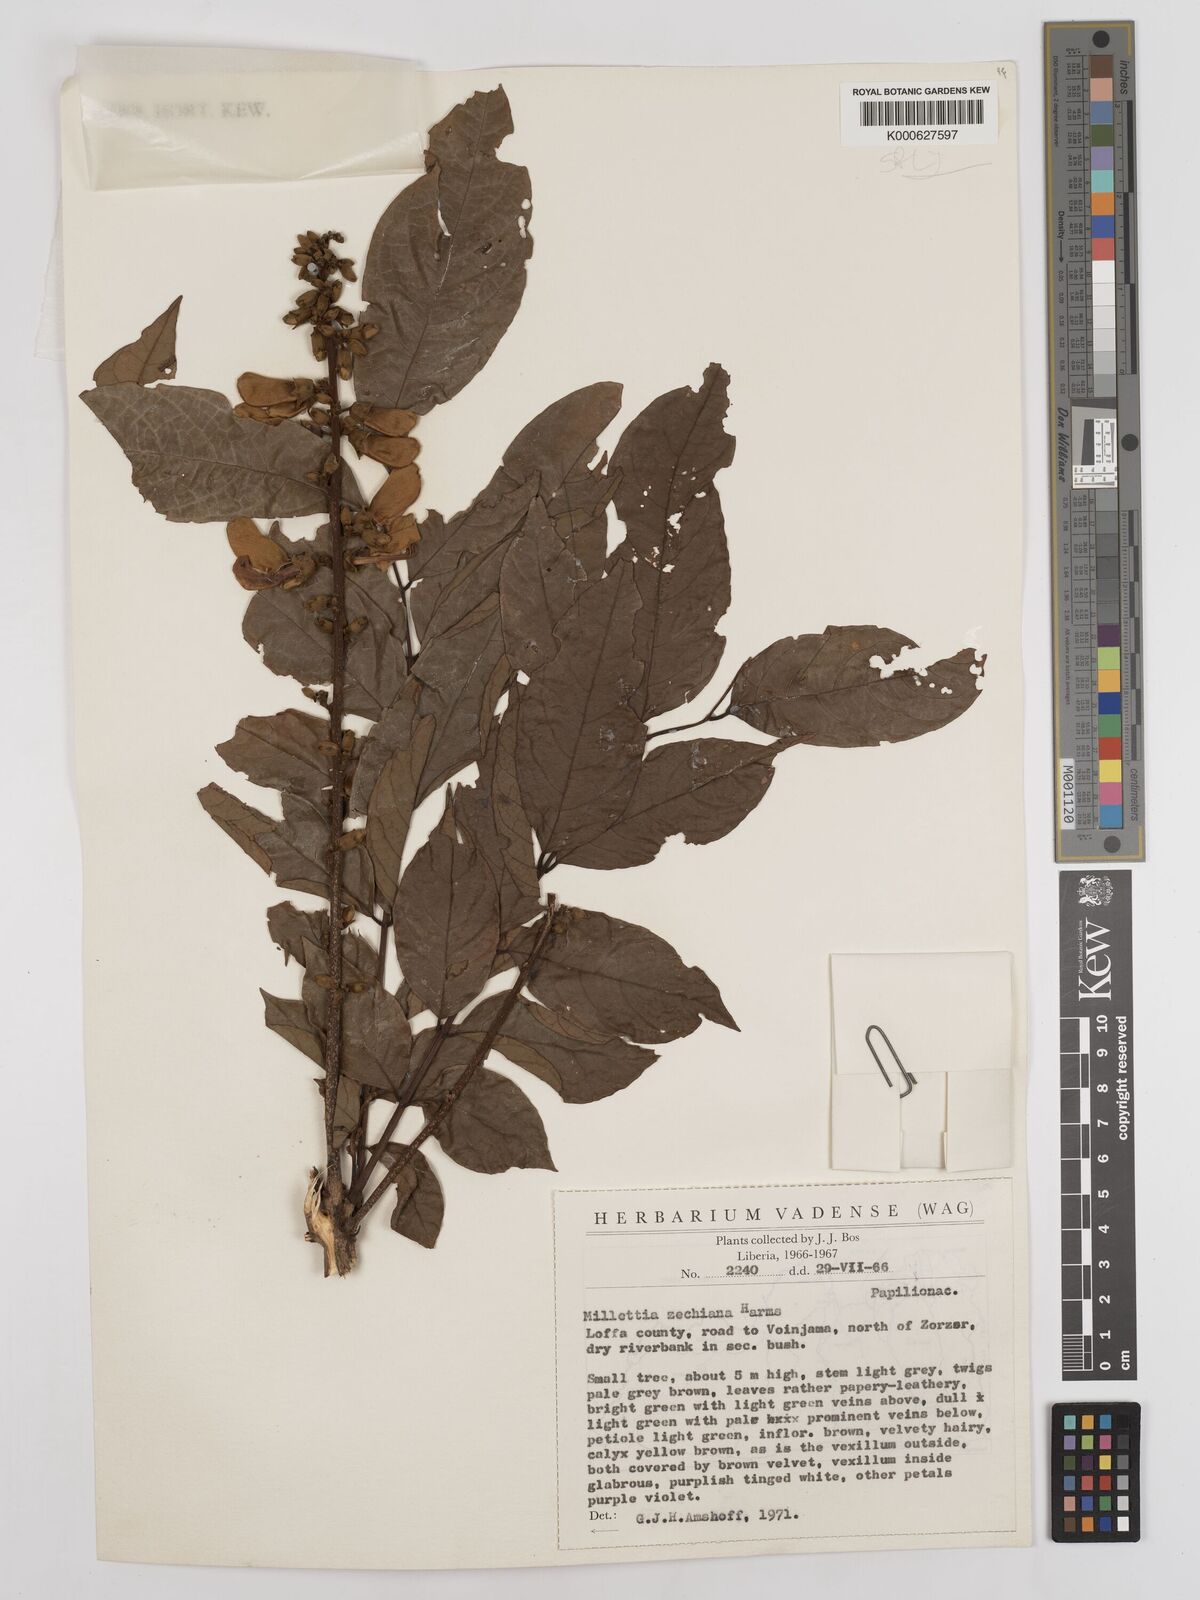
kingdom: Plantae
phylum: Tracheophyta
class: Magnoliopsida
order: Fabales
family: Fabaceae
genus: Millettia
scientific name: Millettia zechiana
